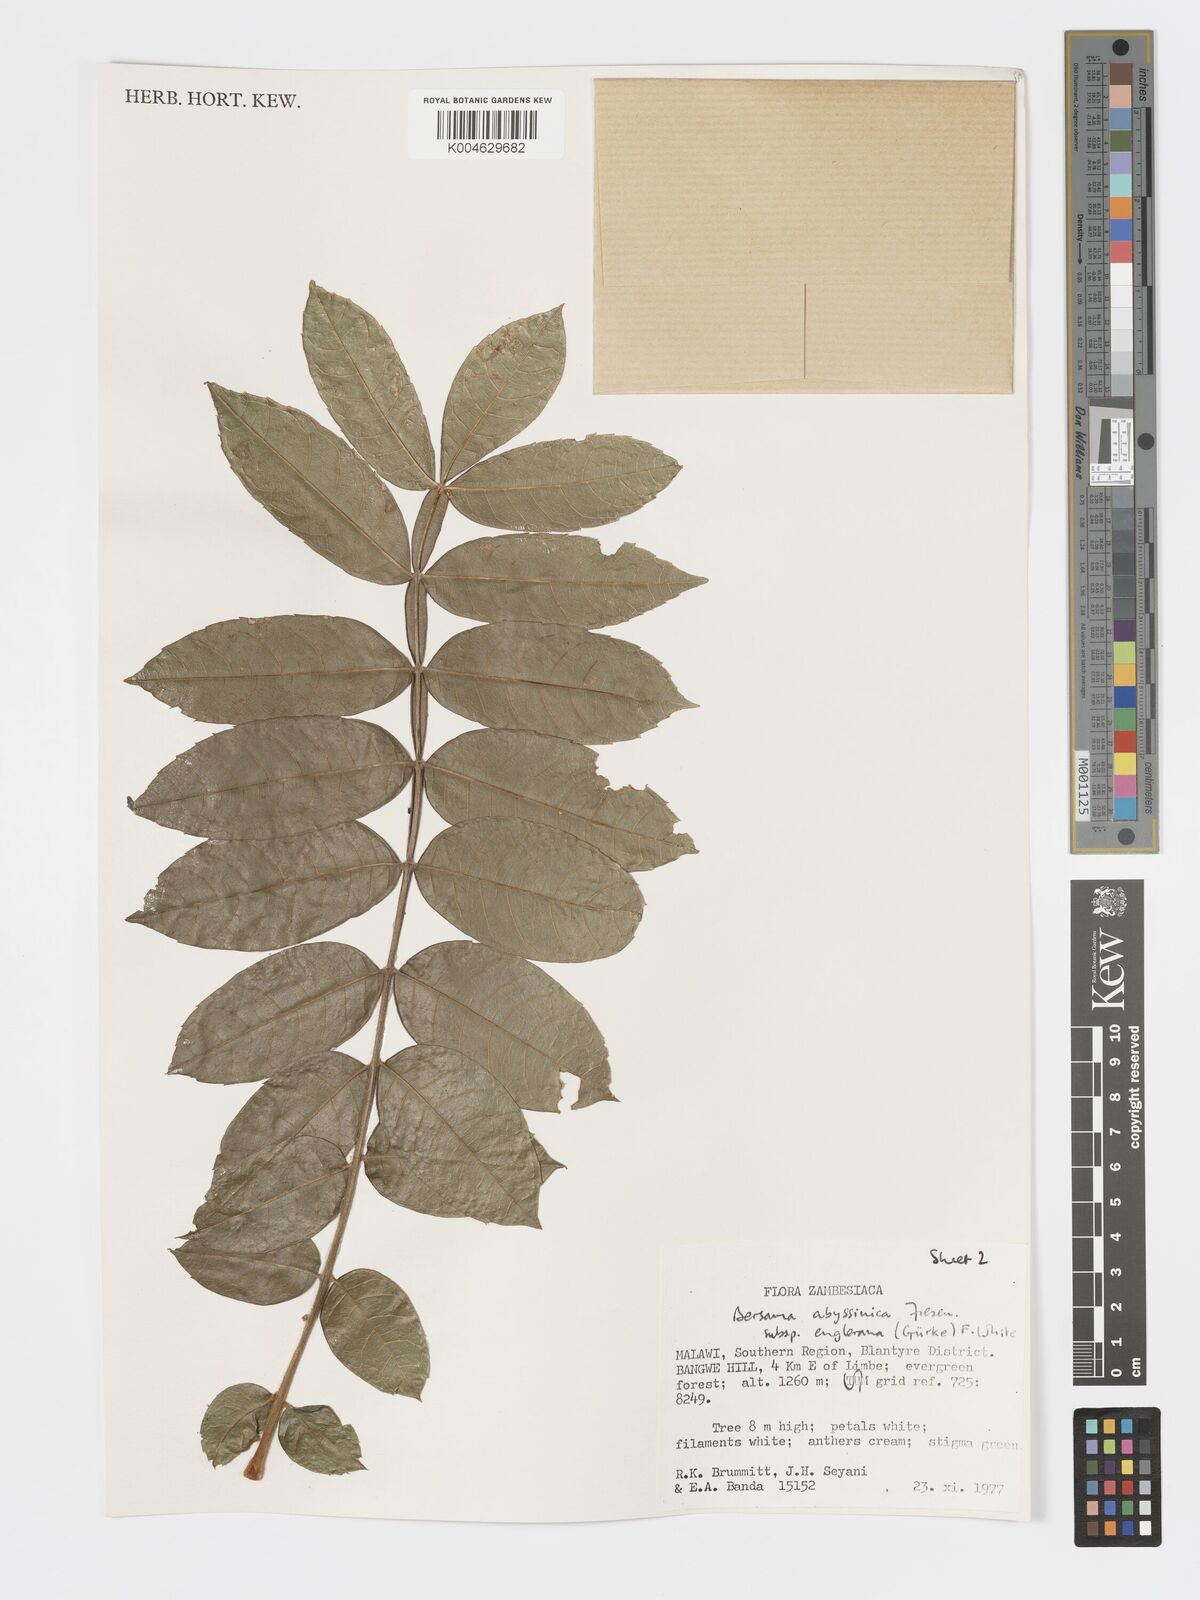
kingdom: Plantae
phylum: Tracheophyta
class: Magnoliopsida
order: Geraniales
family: Melianthaceae
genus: Bersama
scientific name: Bersama abyssinica
